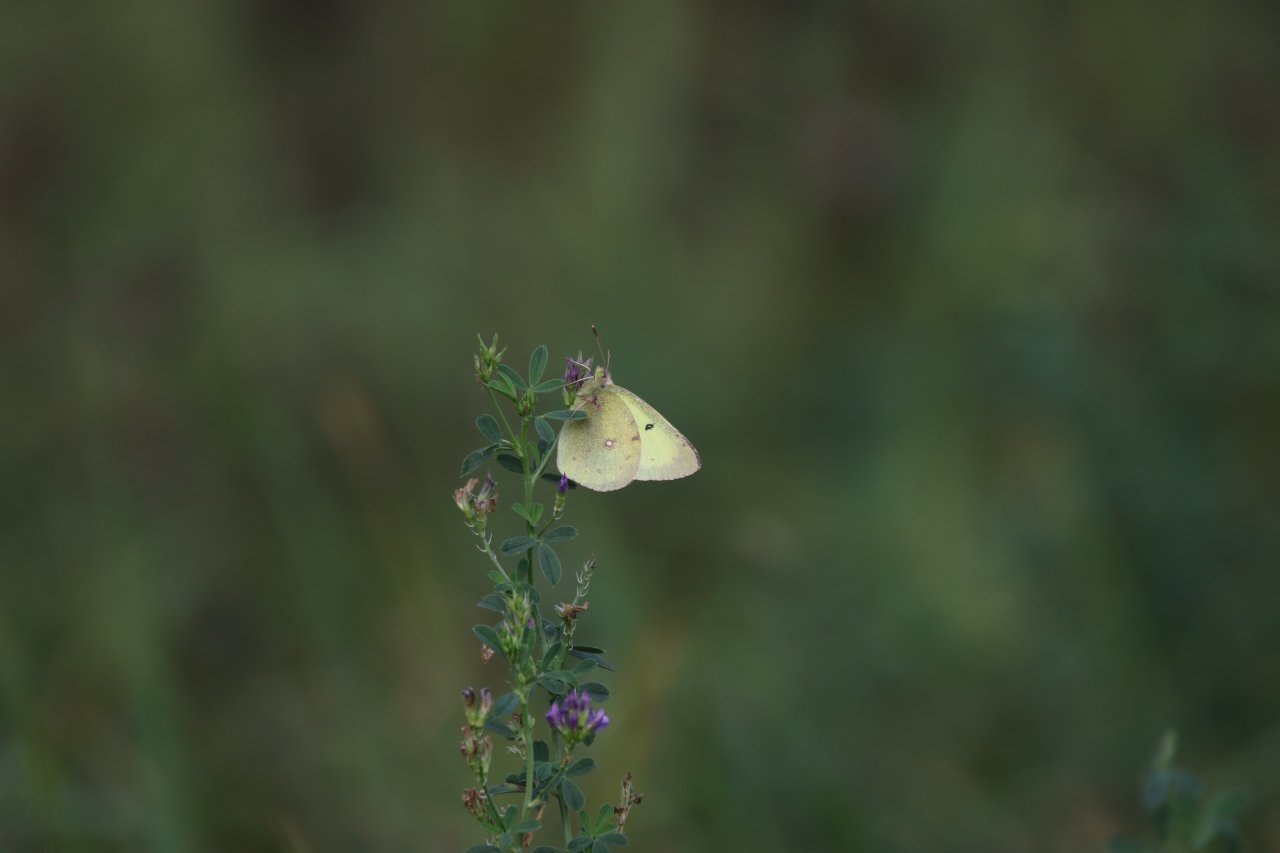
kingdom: Animalia
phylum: Arthropoda
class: Insecta
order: Lepidoptera
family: Pieridae
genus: Colias
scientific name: Colias
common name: Clouded Yellows
